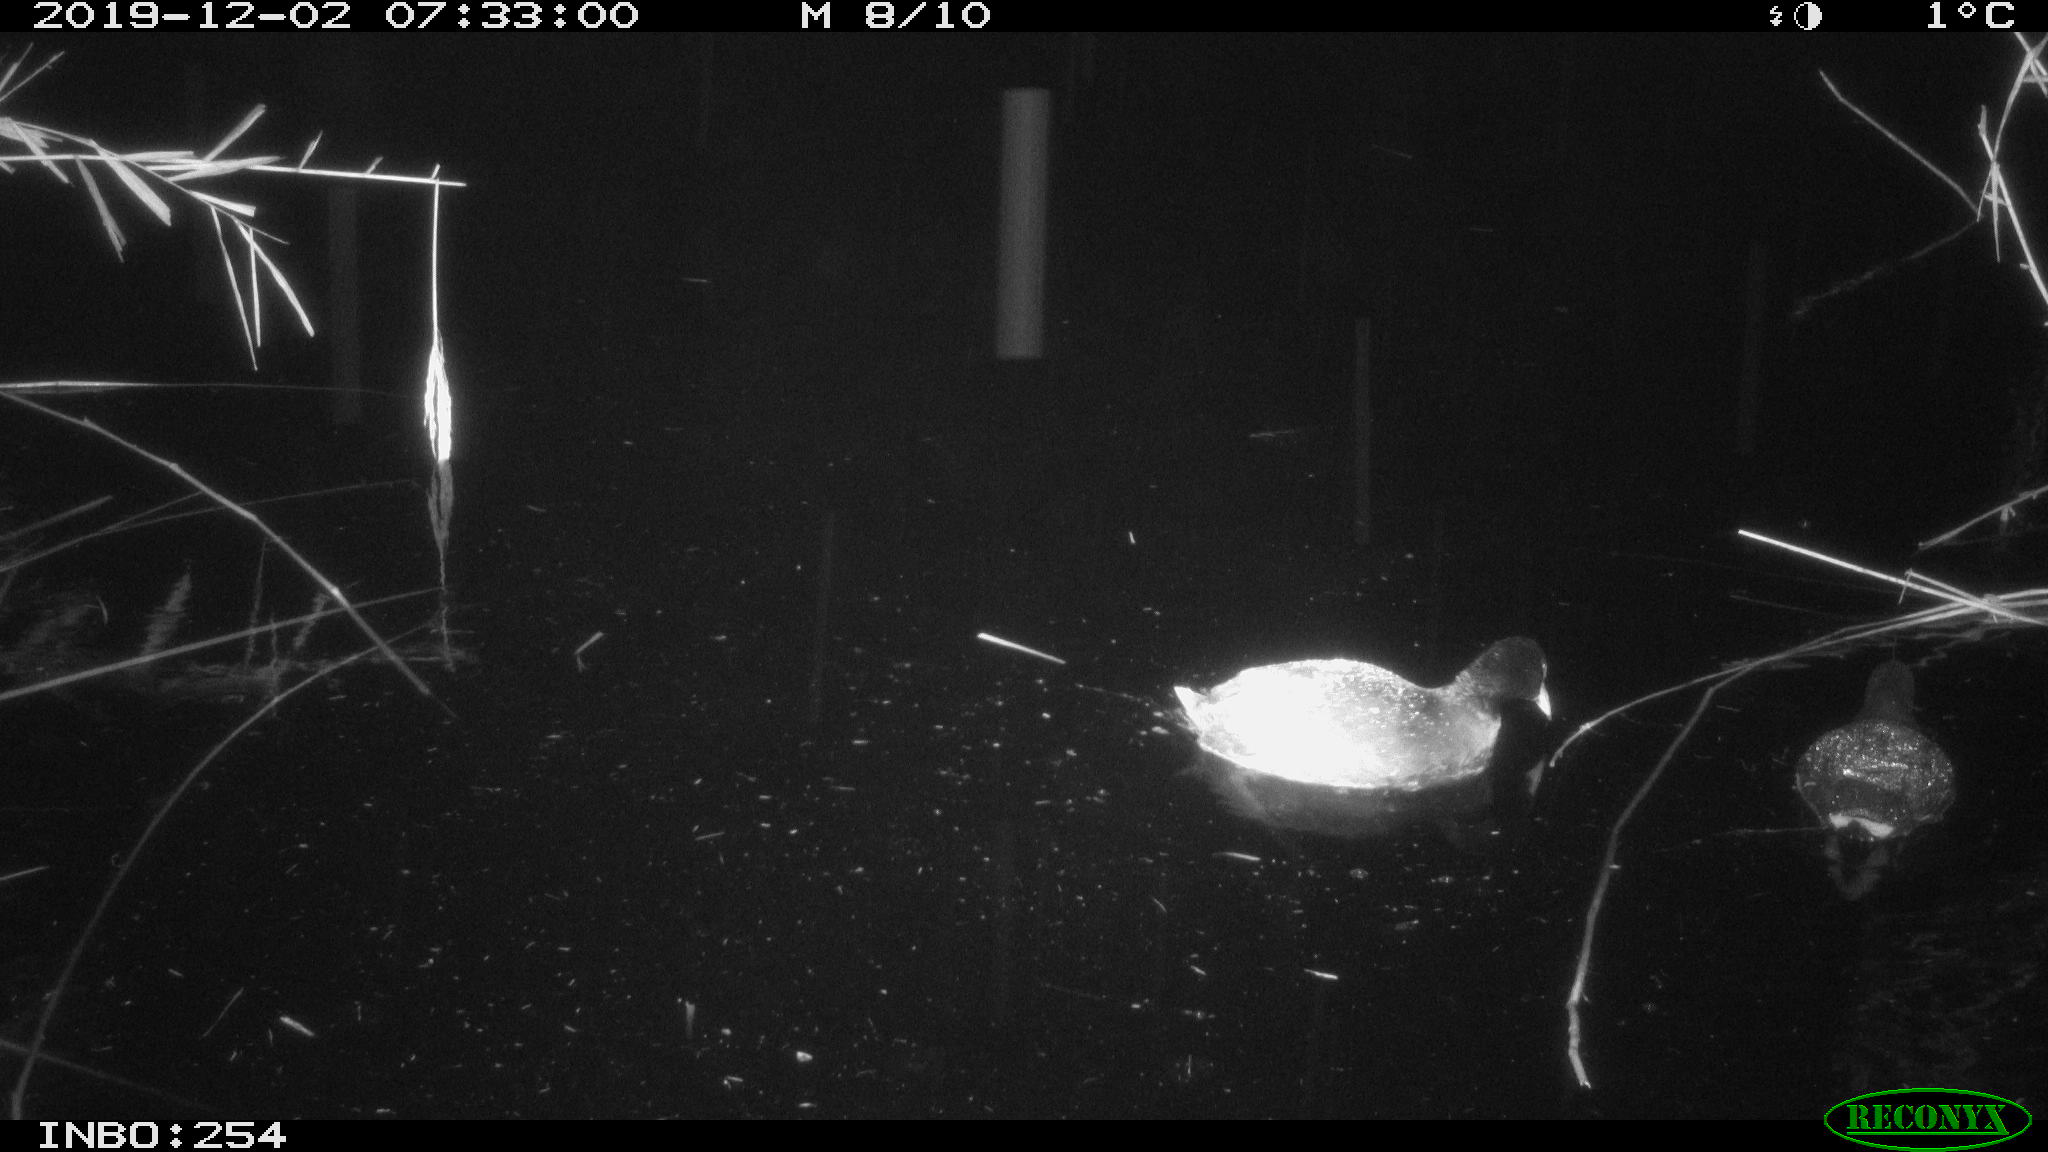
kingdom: Animalia
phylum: Chordata
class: Aves
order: Gruiformes
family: Rallidae
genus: Fulica
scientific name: Fulica atra
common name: Eurasian coot
